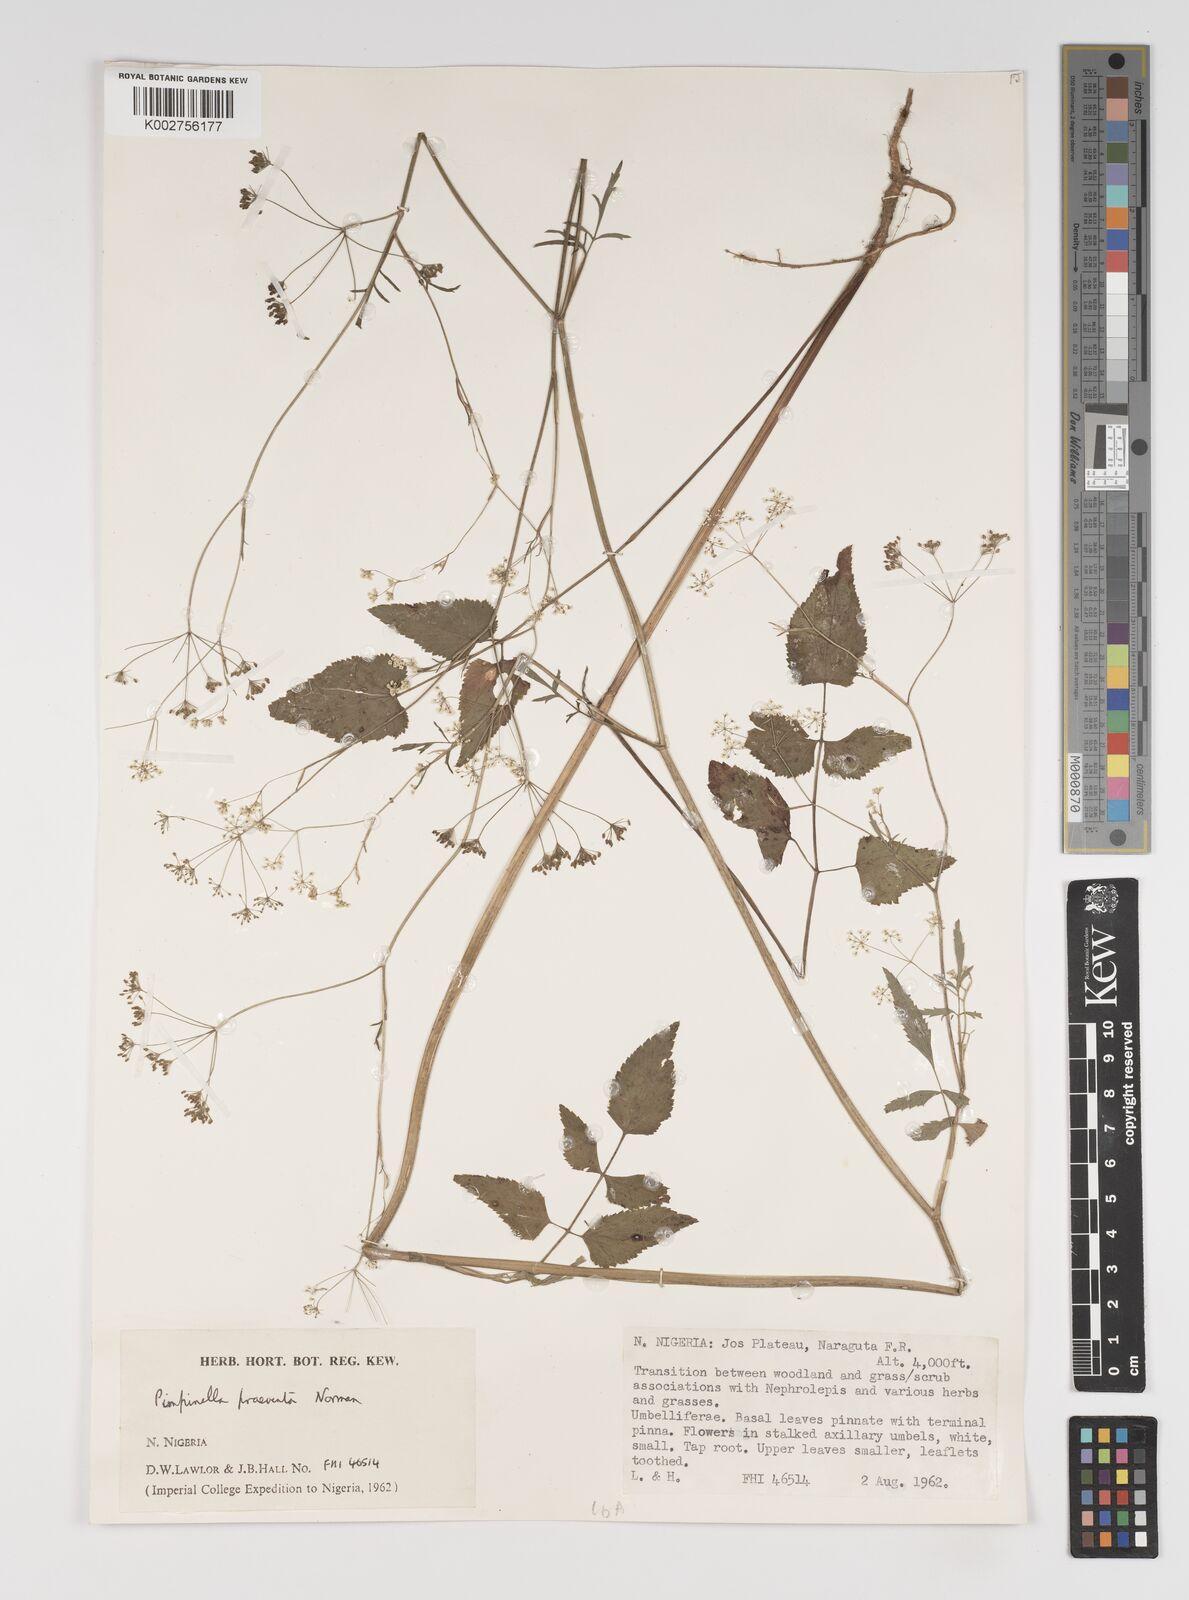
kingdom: Plantae
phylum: Tracheophyta
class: Magnoliopsida
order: Apiales
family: Apiaceae
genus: Pimpinella
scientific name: Pimpinella hirtella
